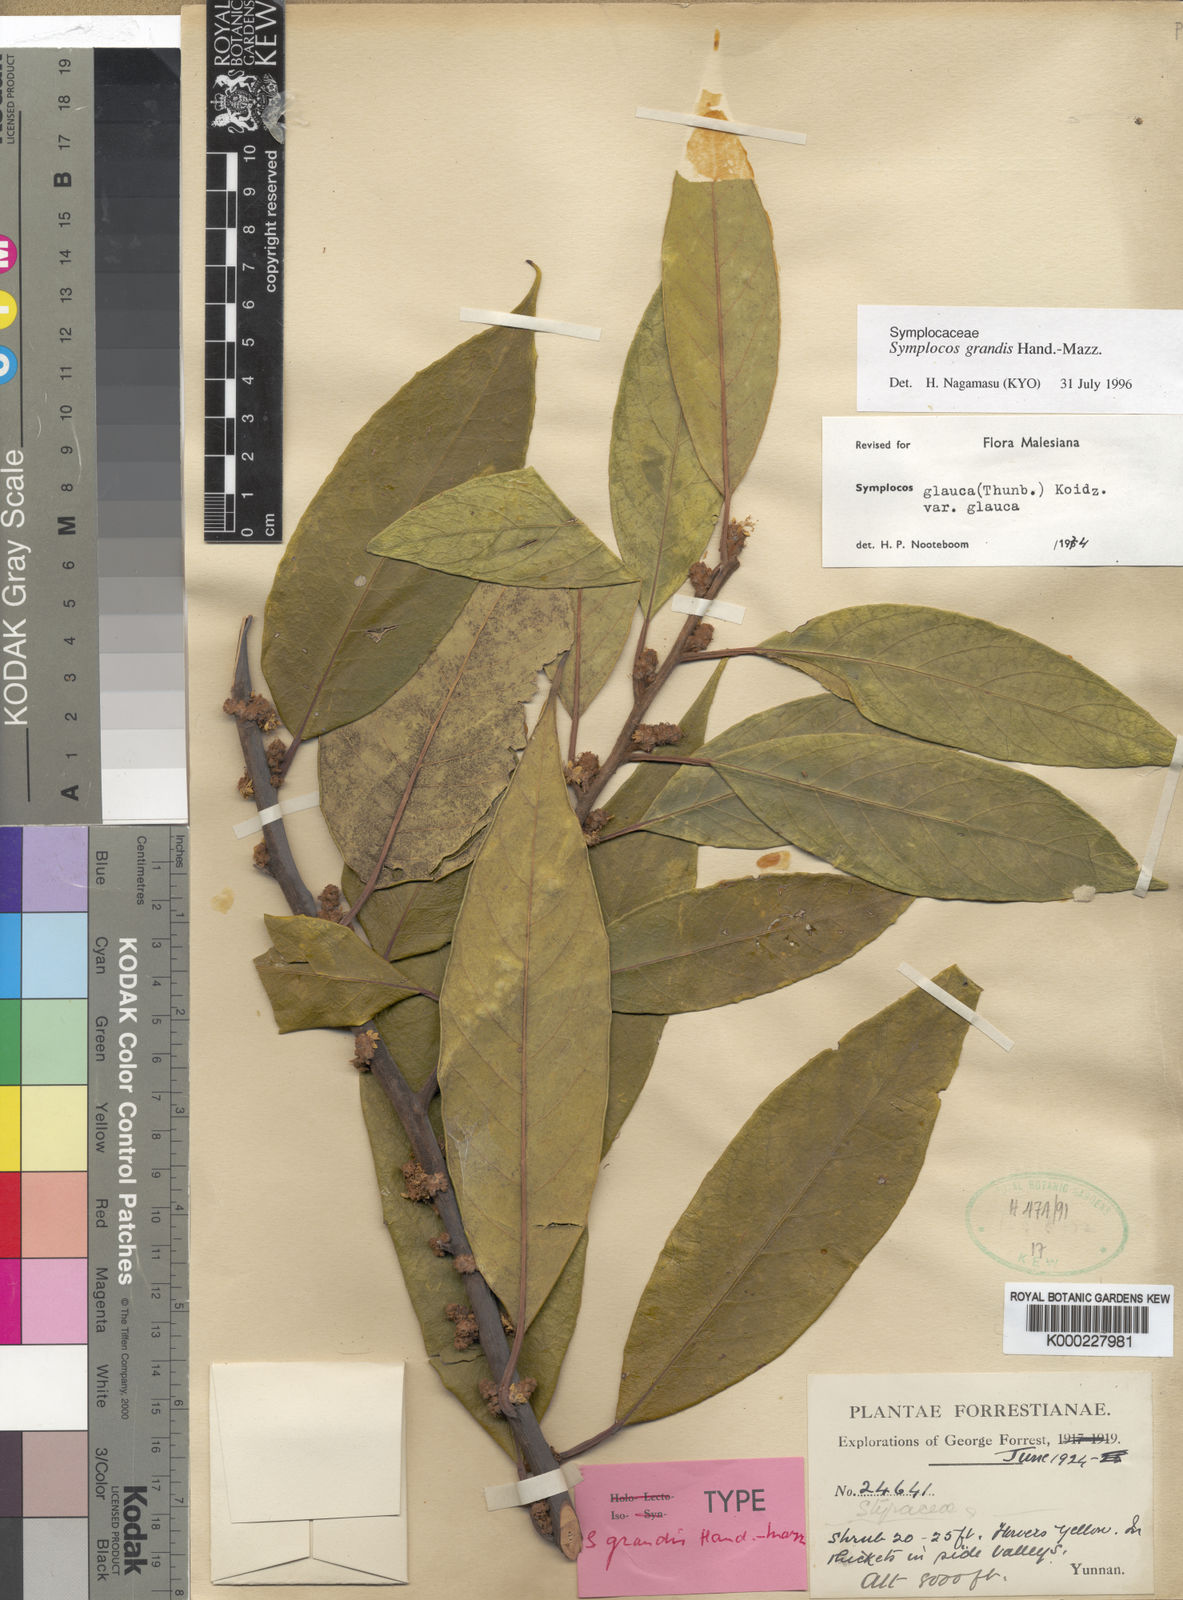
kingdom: Plantae
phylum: Tracheophyta
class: Magnoliopsida
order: Ericales
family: Symplocaceae
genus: Symplocos
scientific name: Symplocos glauca
